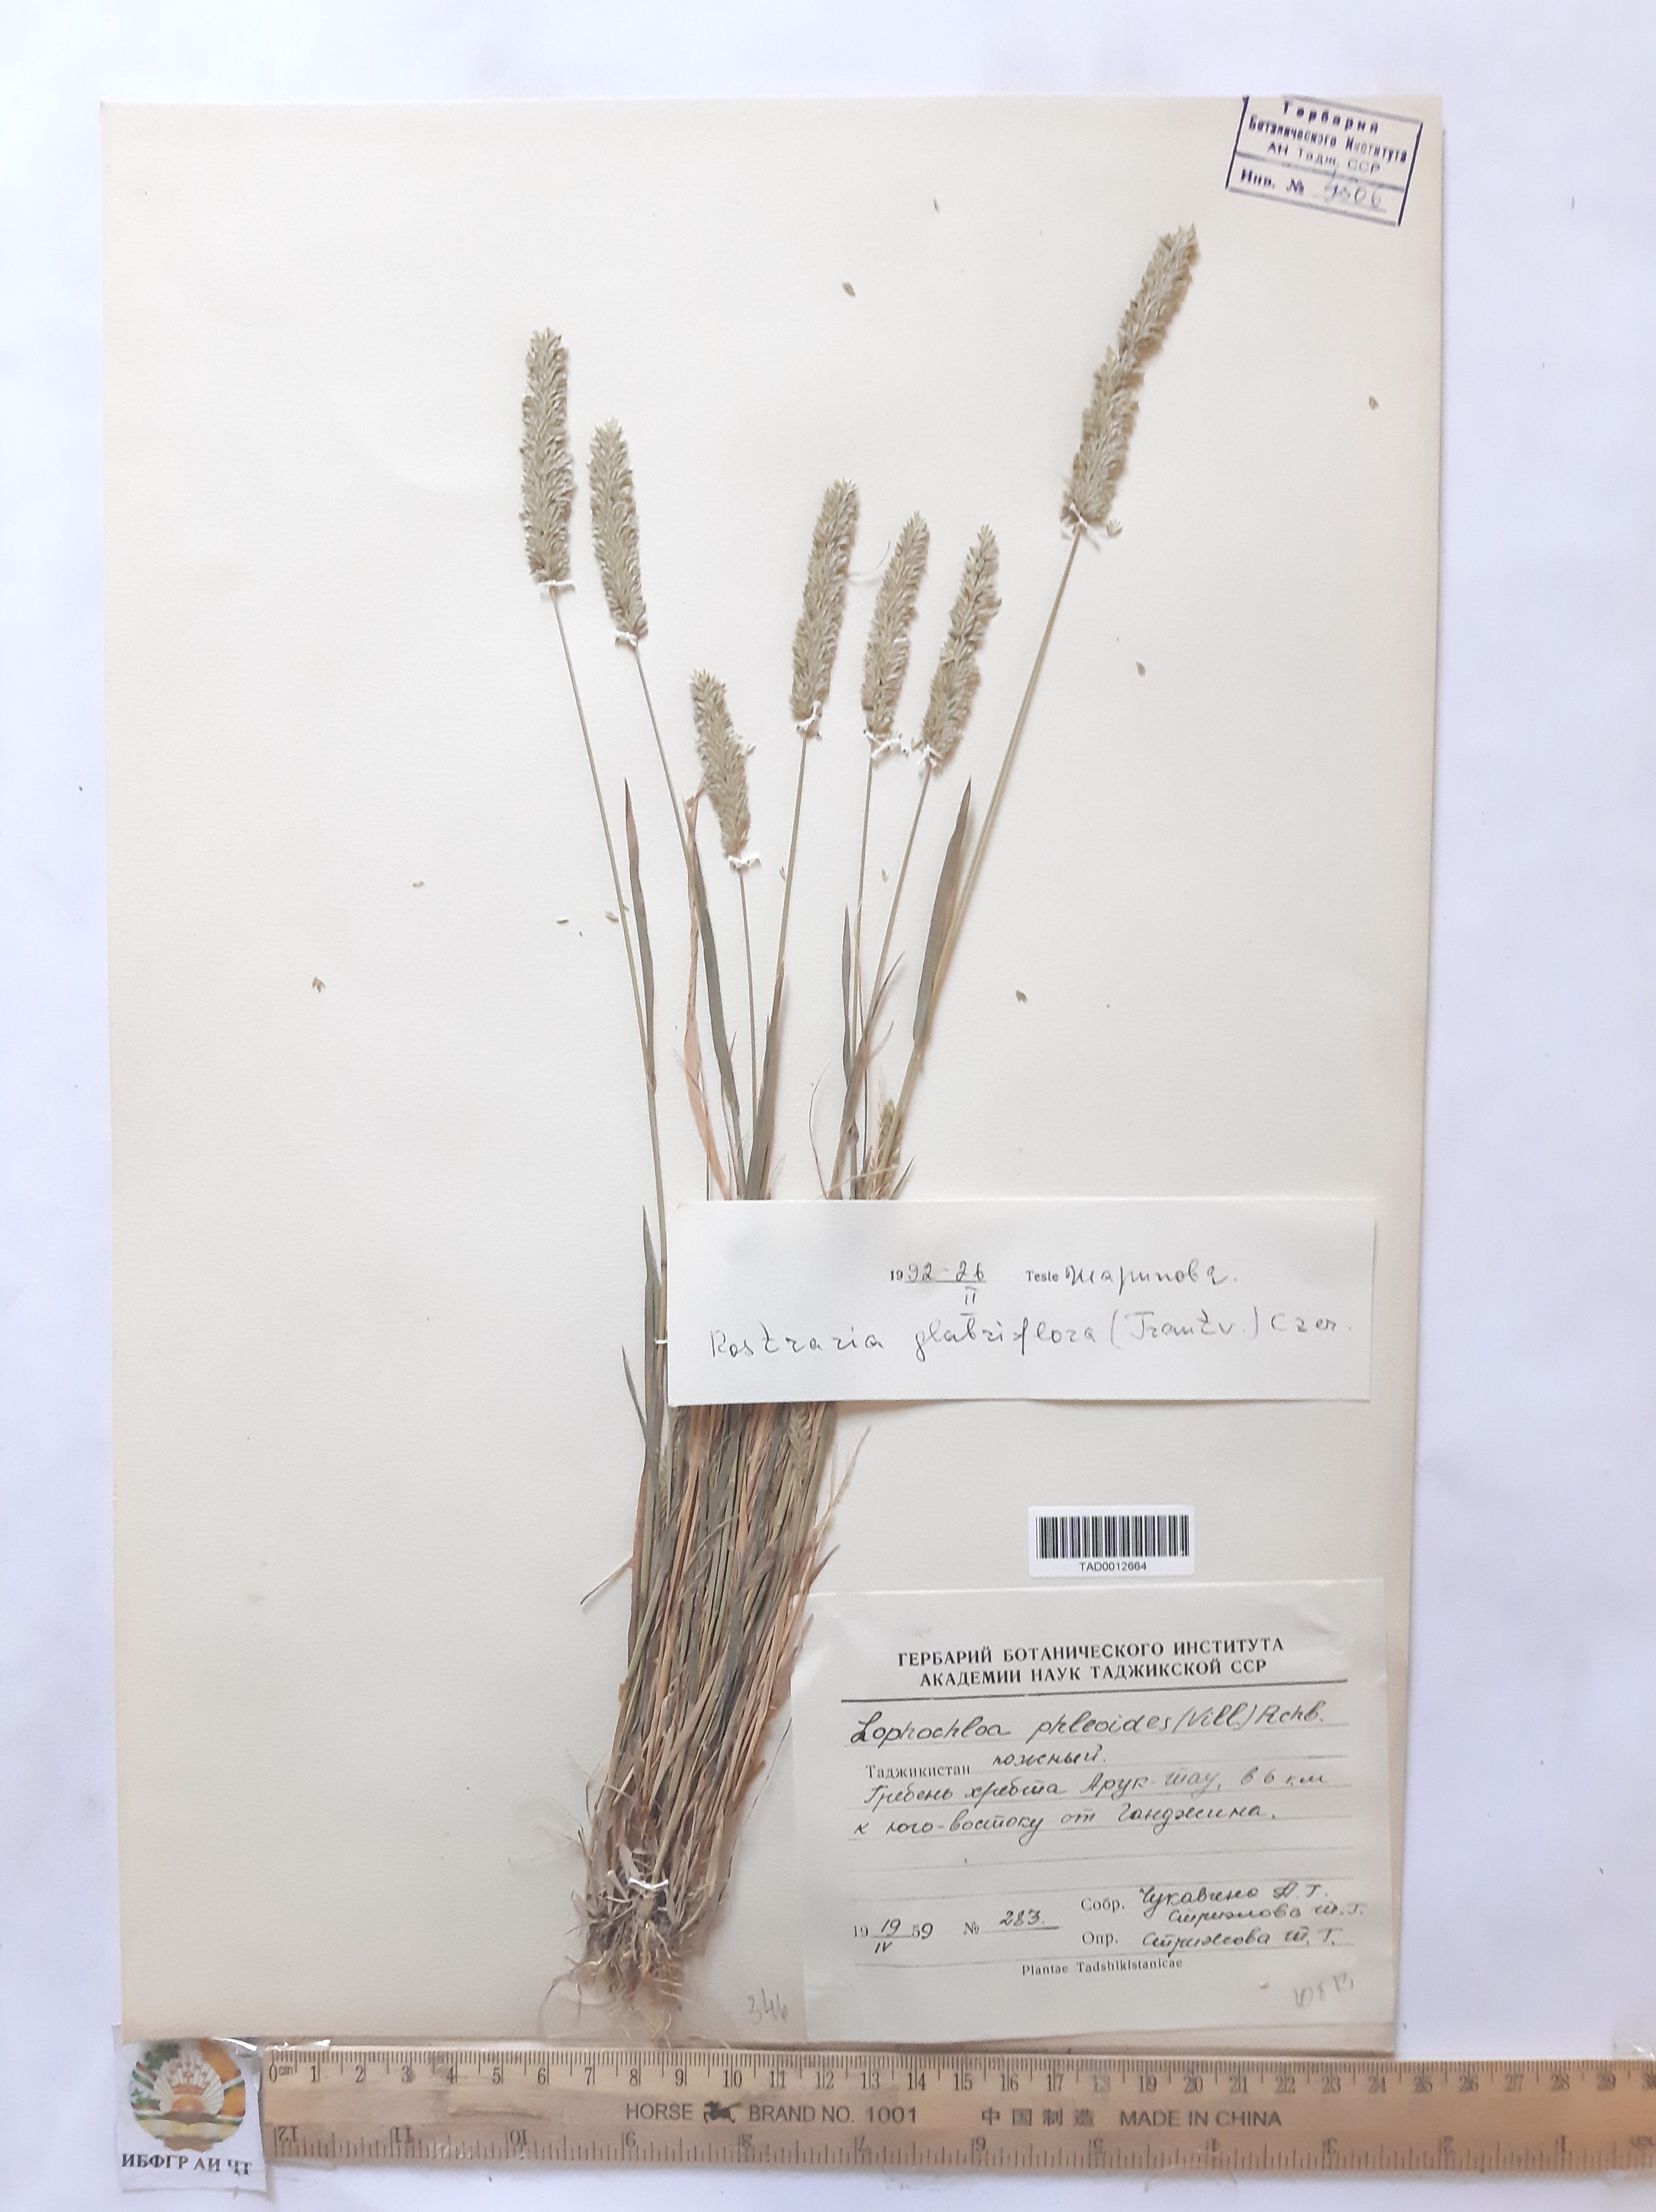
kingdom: Plantae
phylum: Tracheophyta
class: Liliopsida
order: Poales
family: Poaceae
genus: Rostraria
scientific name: Rostraria cristata
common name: Mediterranean hair-grass
